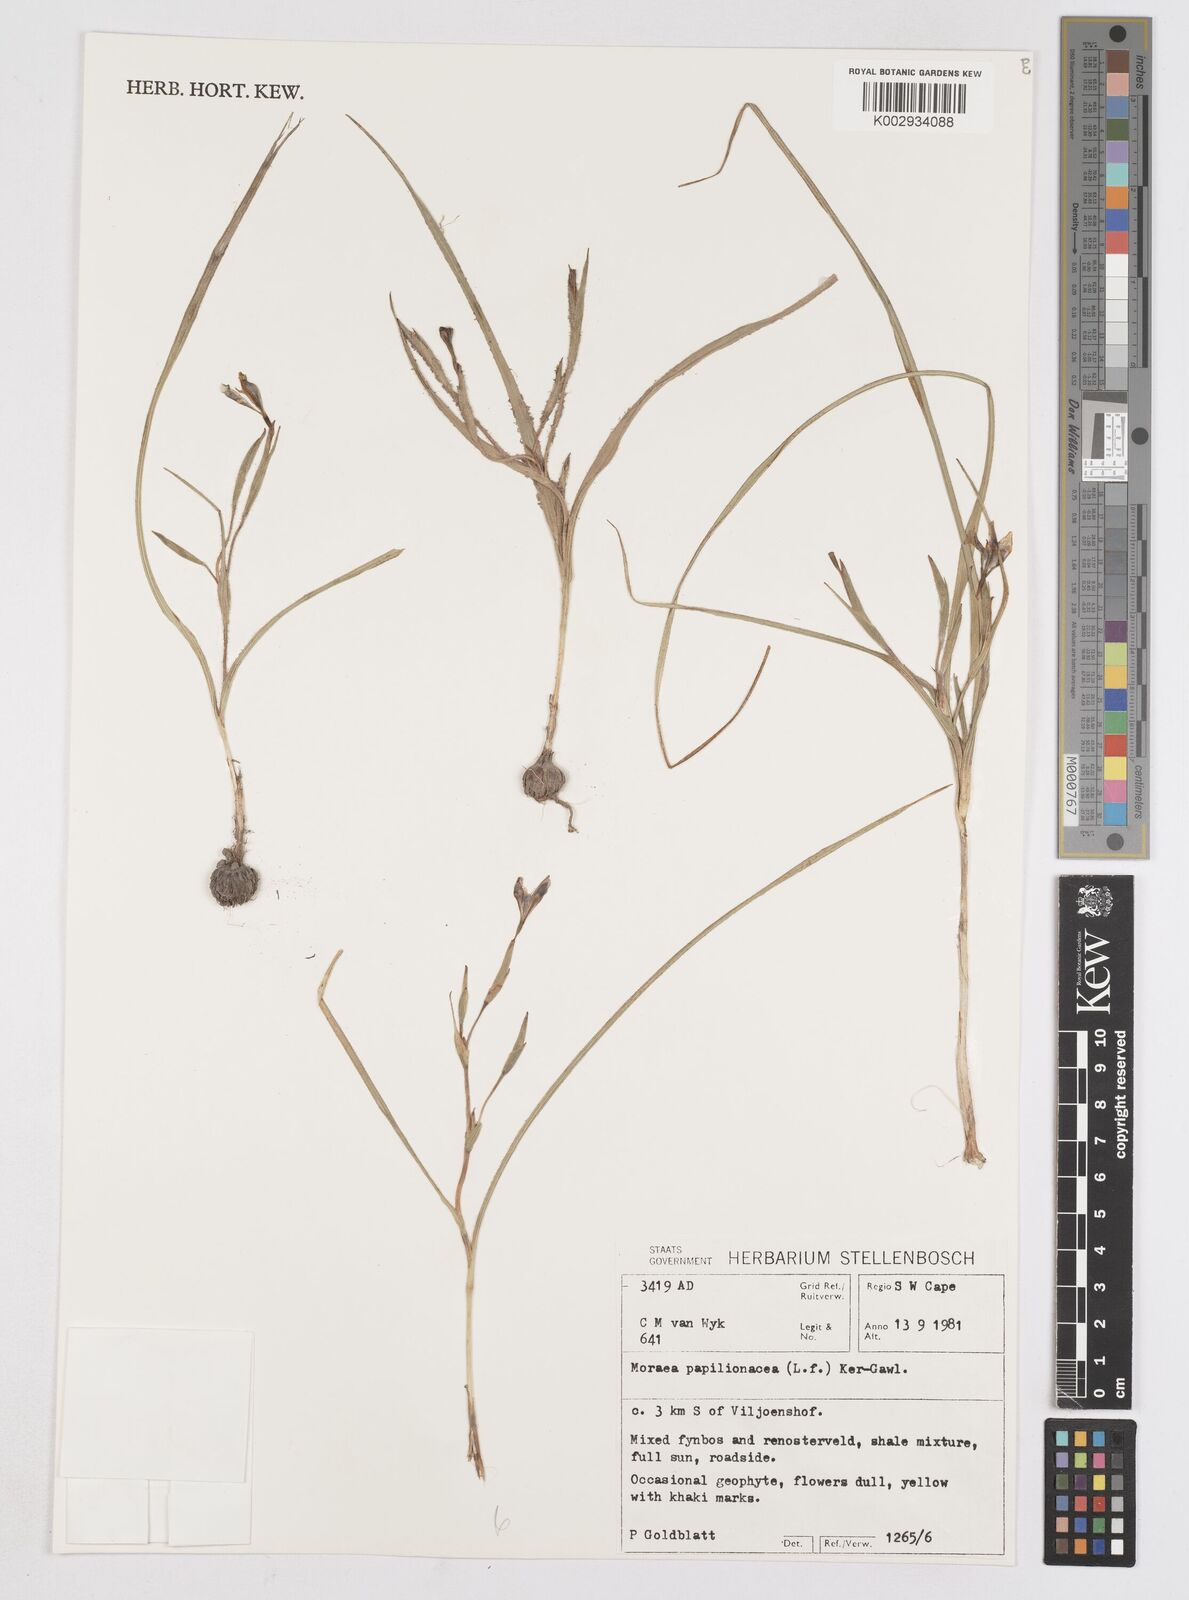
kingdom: Plantae
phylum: Tracheophyta
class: Liliopsida
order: Asparagales
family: Iridaceae
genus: Moraea
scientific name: Moraea papilionacea
